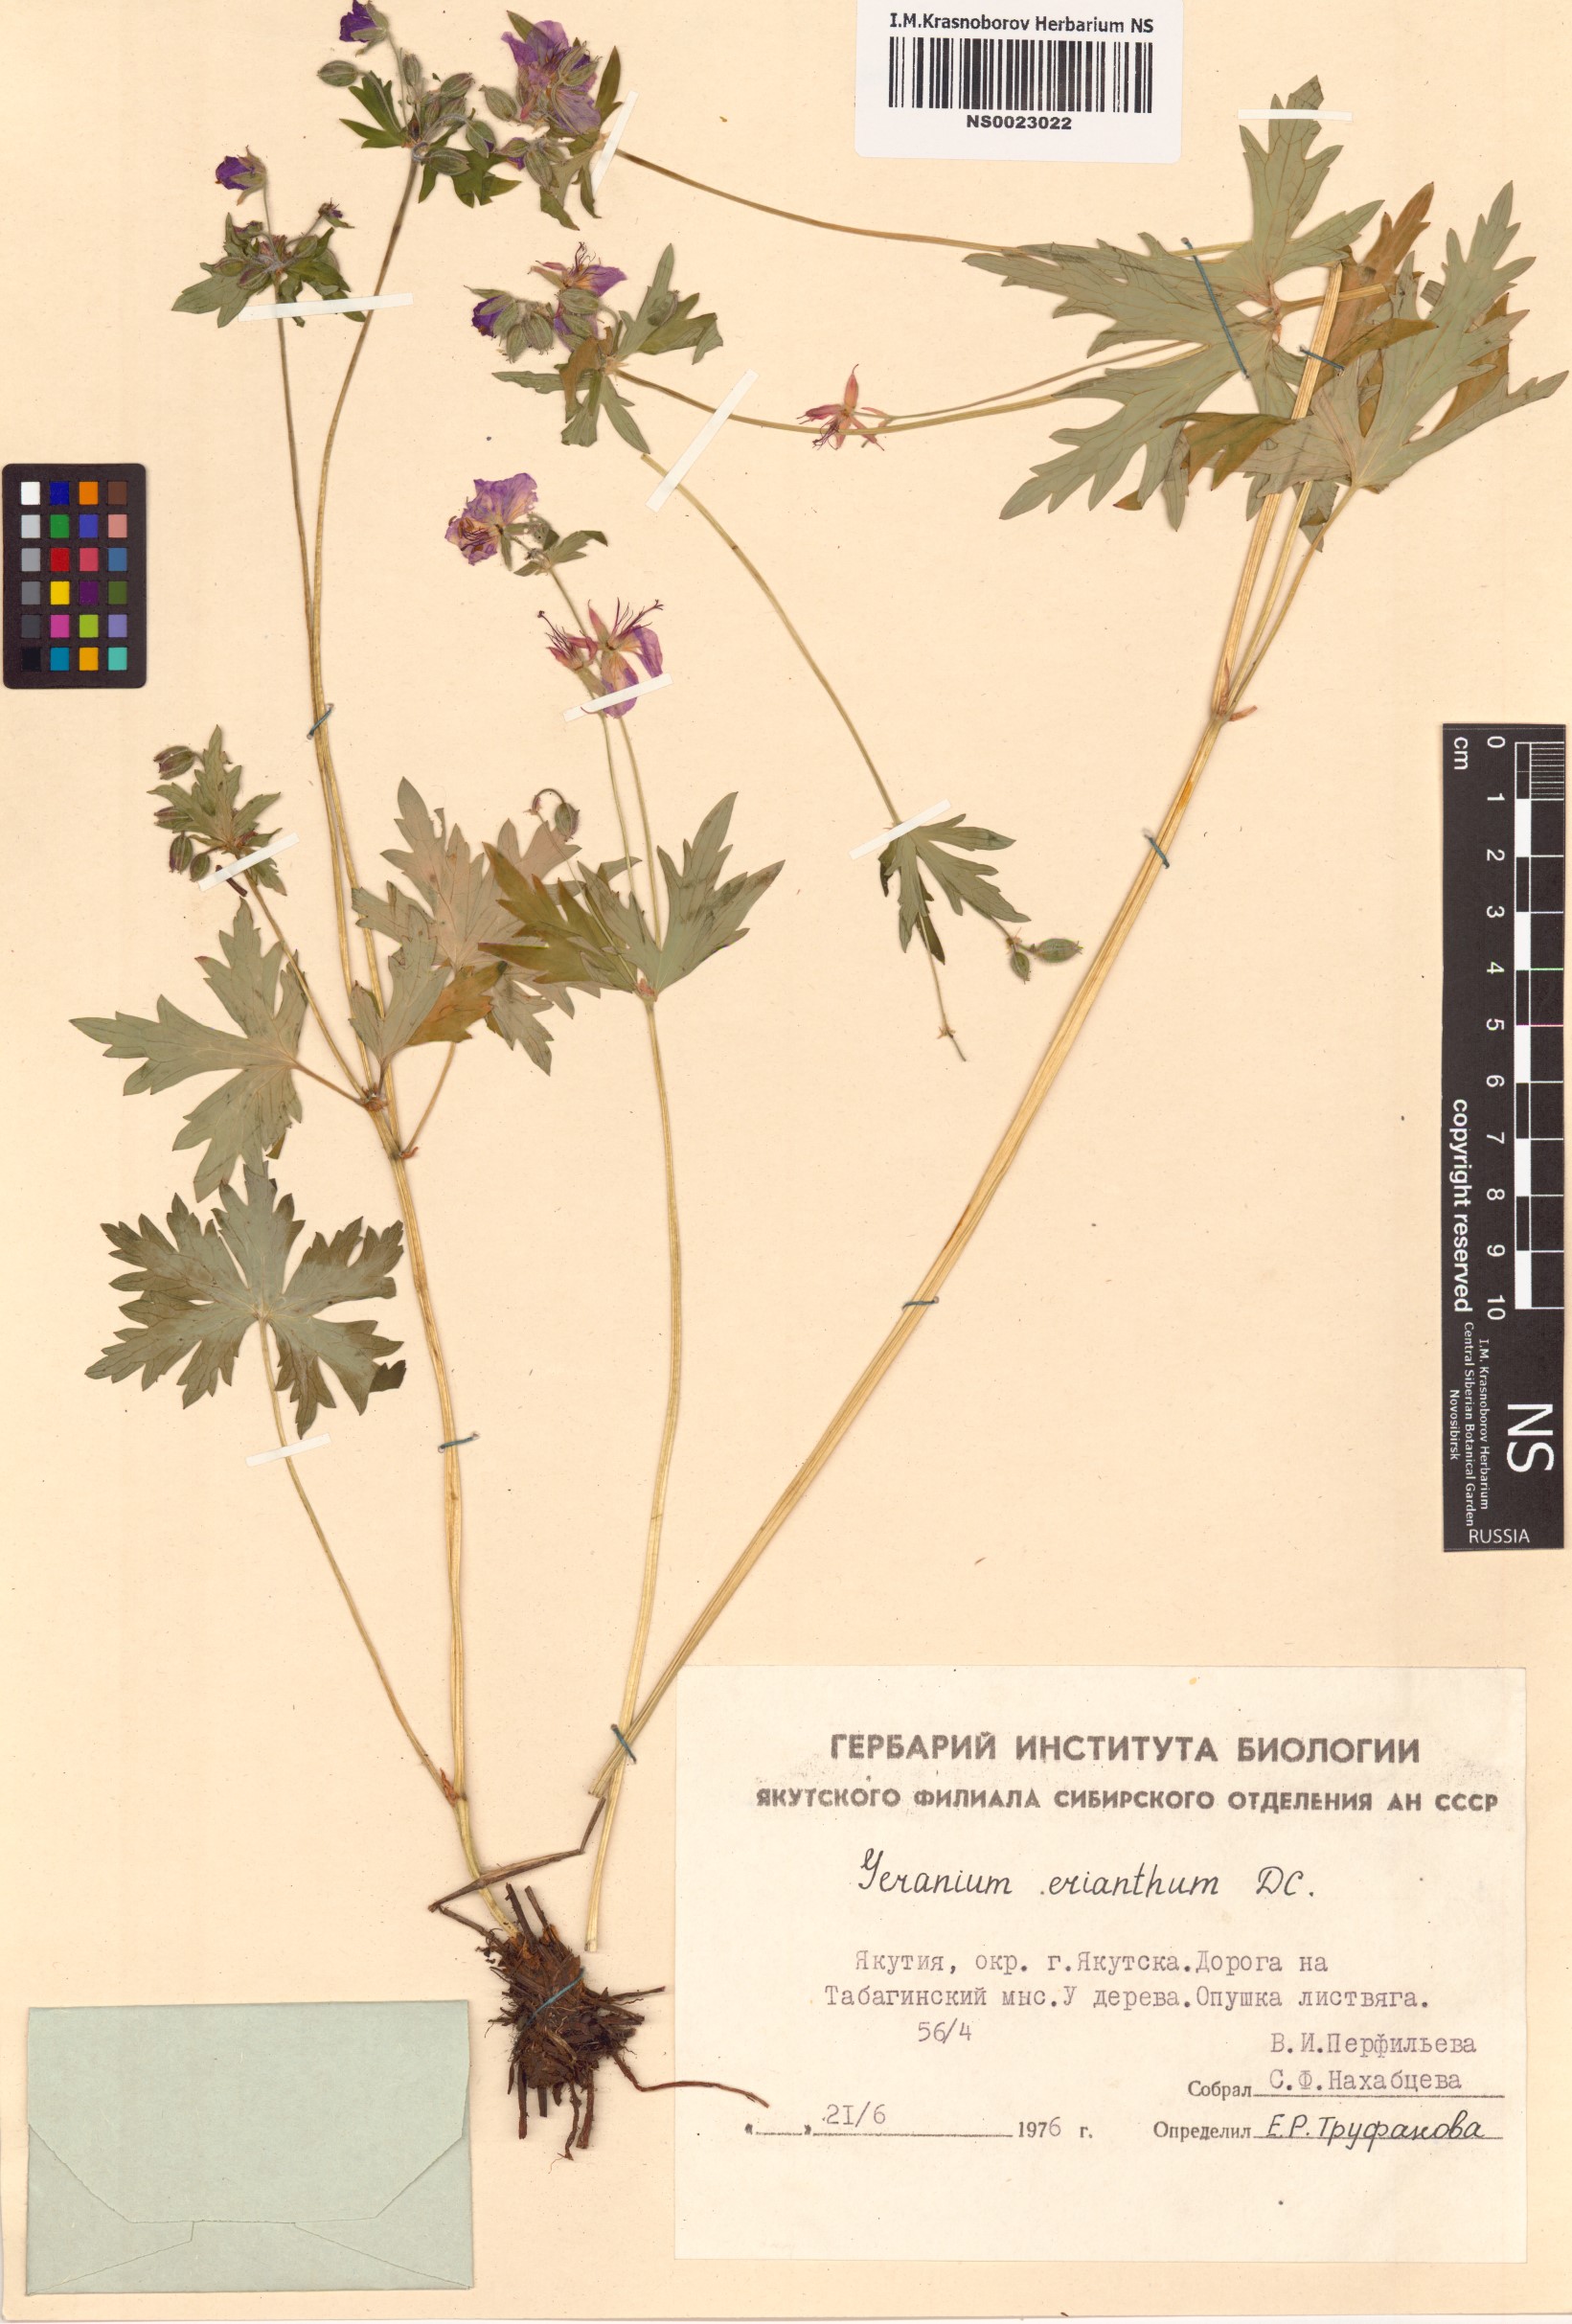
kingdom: Plantae
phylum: Tracheophyta
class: Magnoliopsida
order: Geraniales
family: Geraniaceae
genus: Geranium
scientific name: Geranium erianthum
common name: Northern crane's-bill
